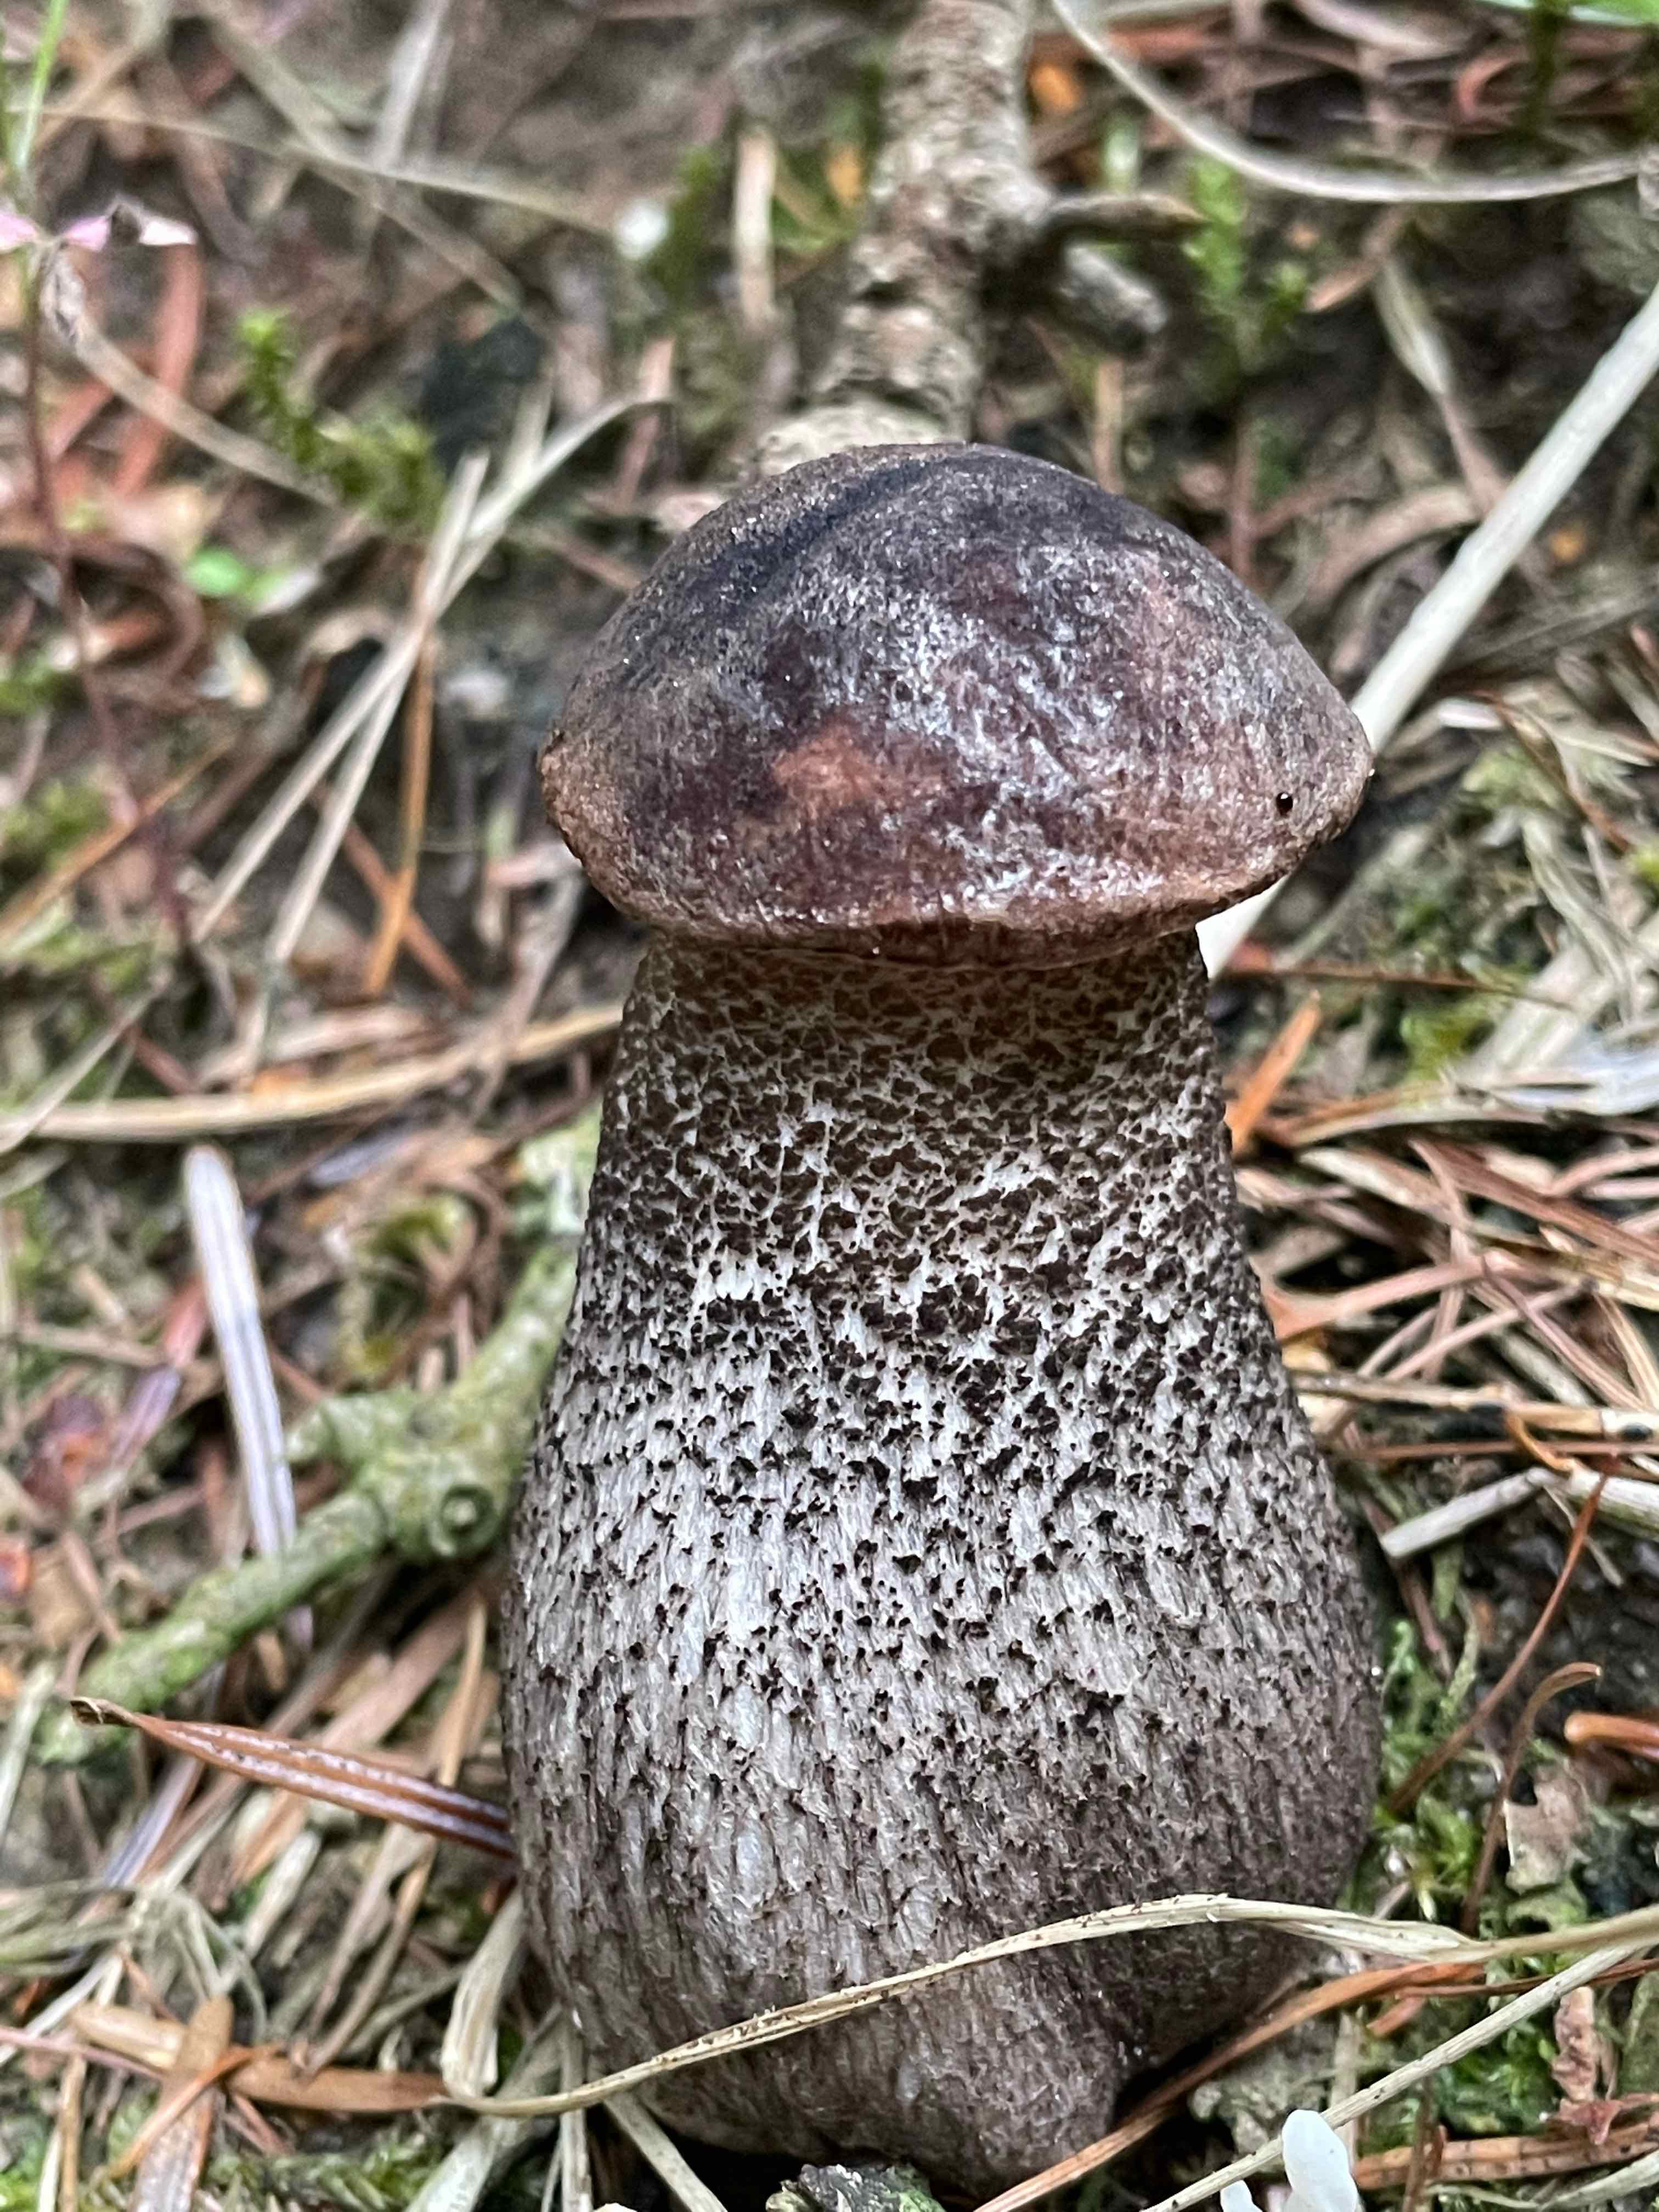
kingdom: Fungi
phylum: Basidiomycota
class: Agaricomycetes
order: Boletales
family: Boletaceae
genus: Leccinum
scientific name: Leccinum
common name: skælrørhat
